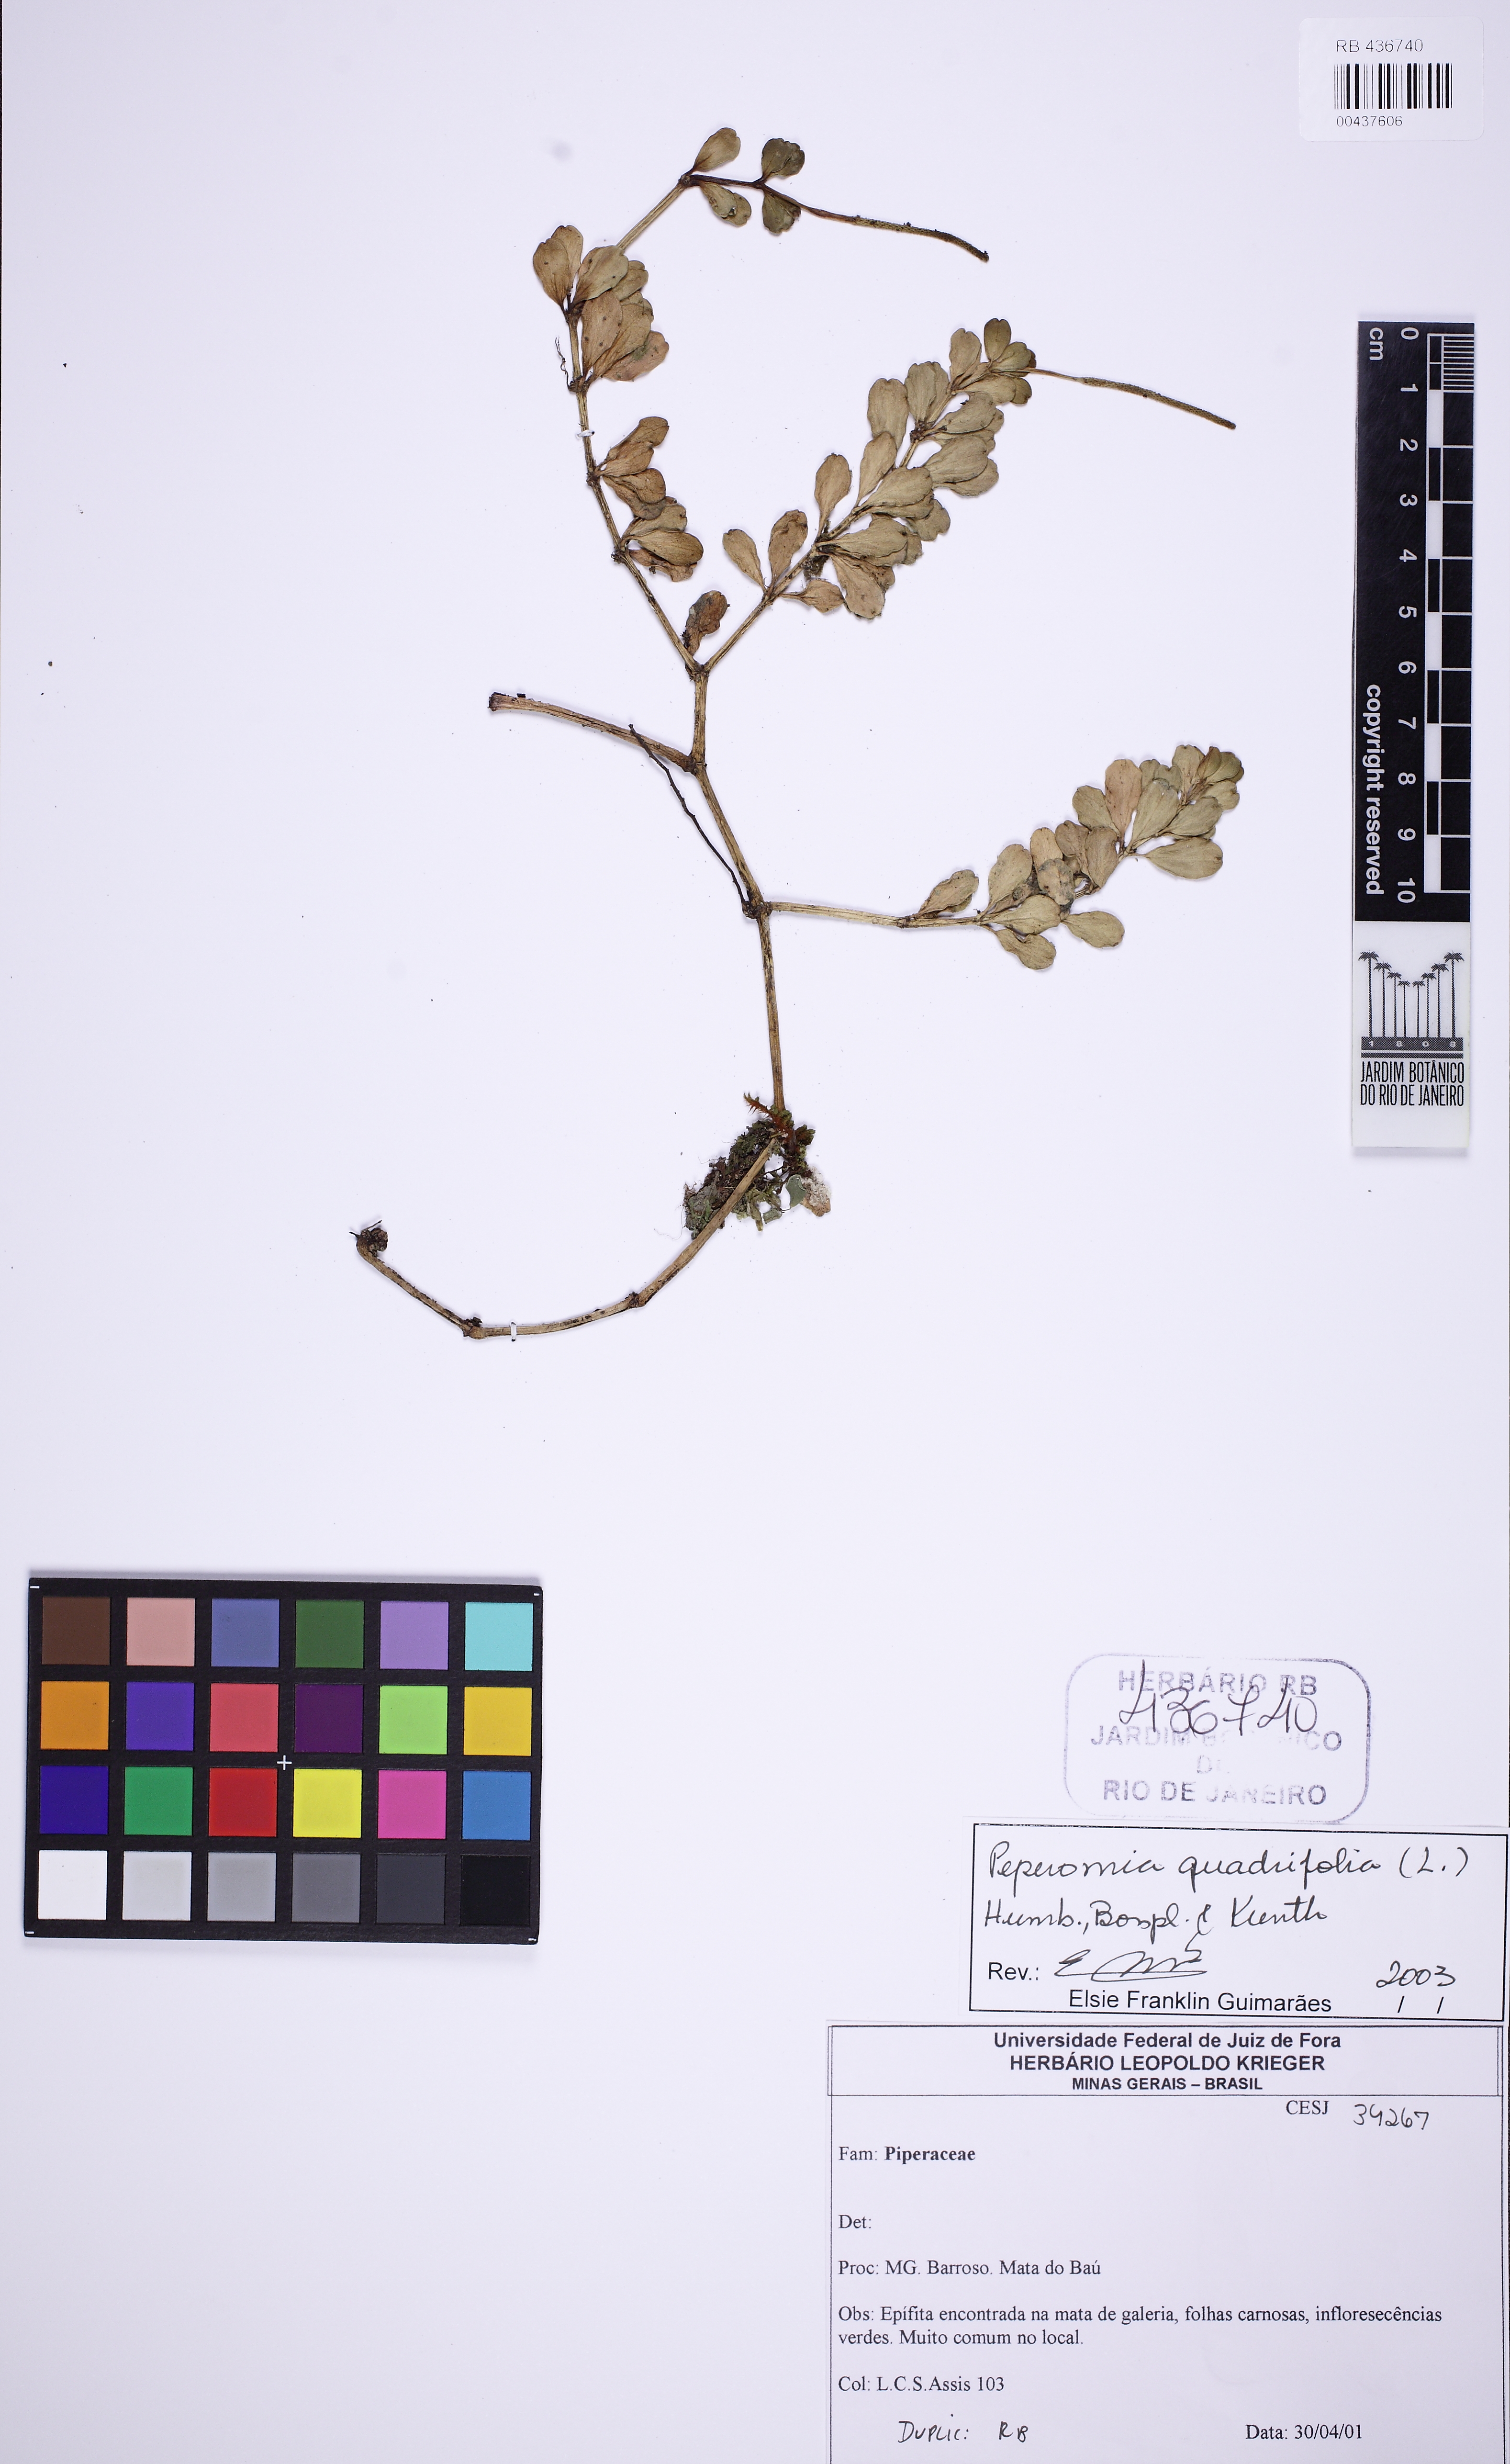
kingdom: Plantae
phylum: Tracheophyta
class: Magnoliopsida
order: Piperales
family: Piperaceae
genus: Peperomia
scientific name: Peperomia quadrifolia
